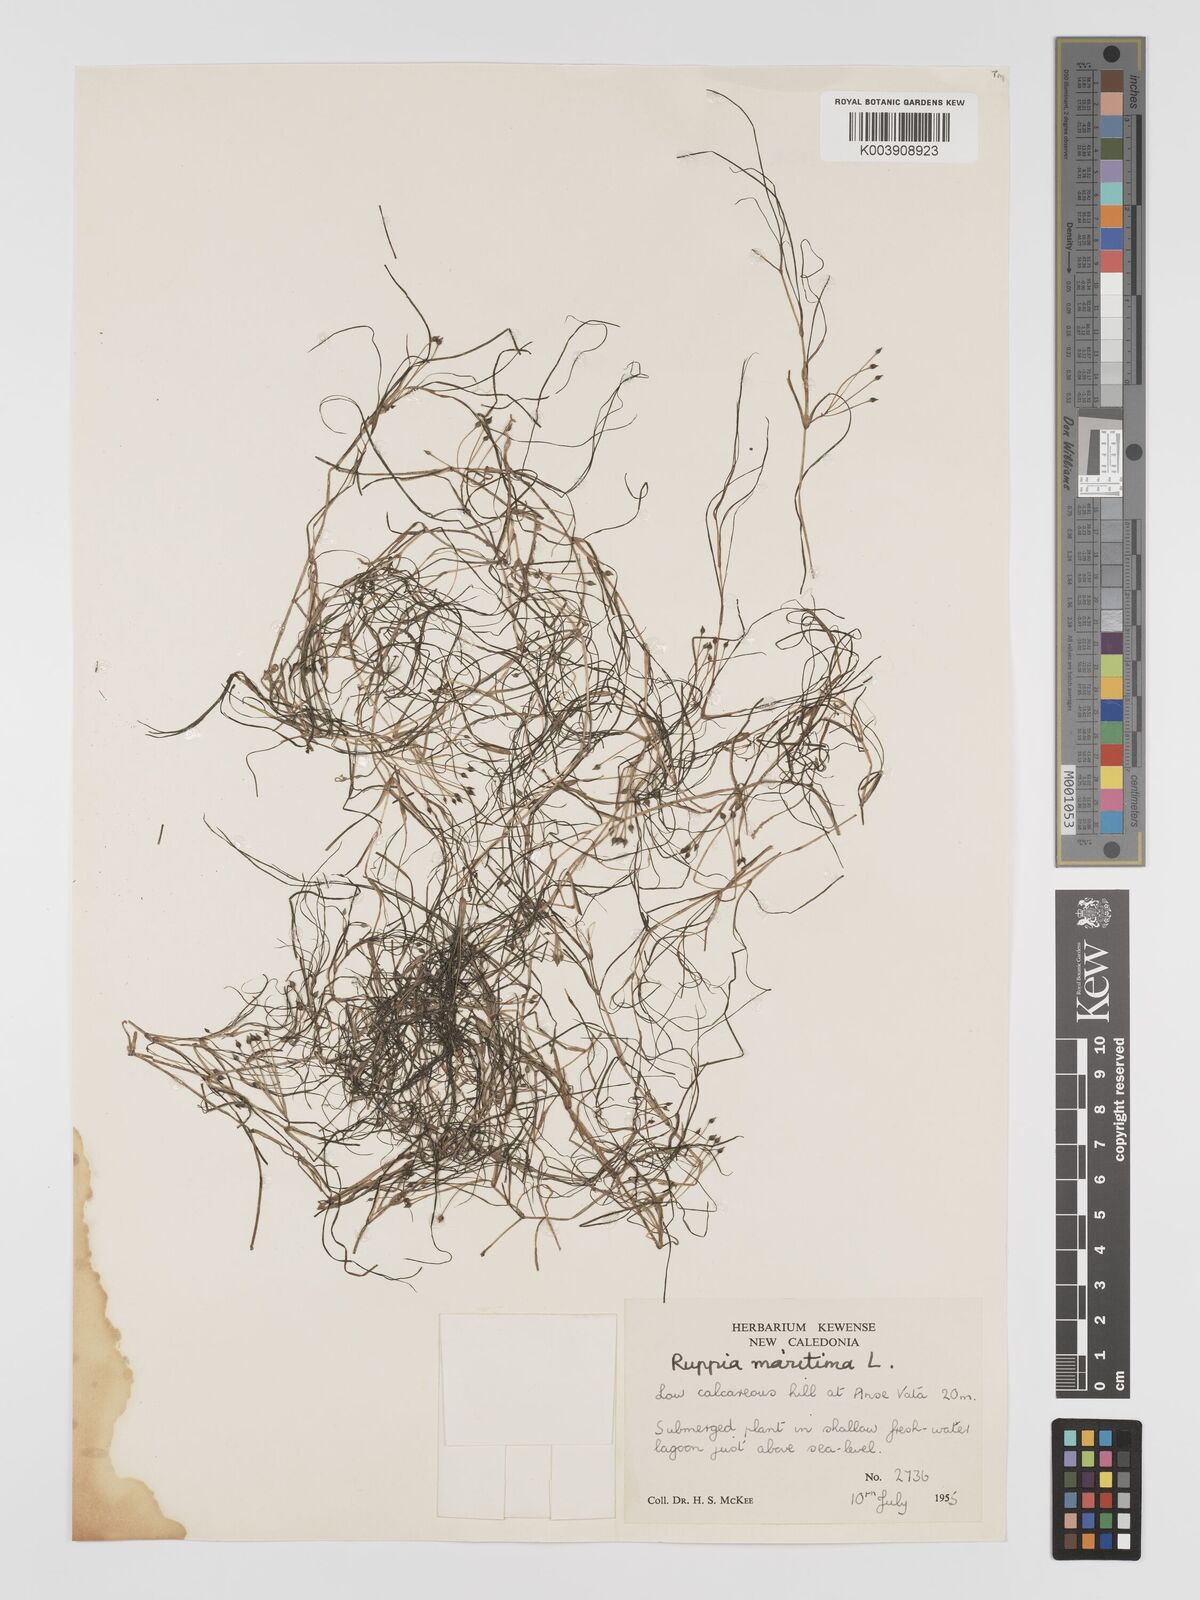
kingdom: Plantae
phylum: Tracheophyta
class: Liliopsida
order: Alismatales
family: Ruppiaceae
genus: Ruppia
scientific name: Ruppia maritima
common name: Beaked tasselweed
